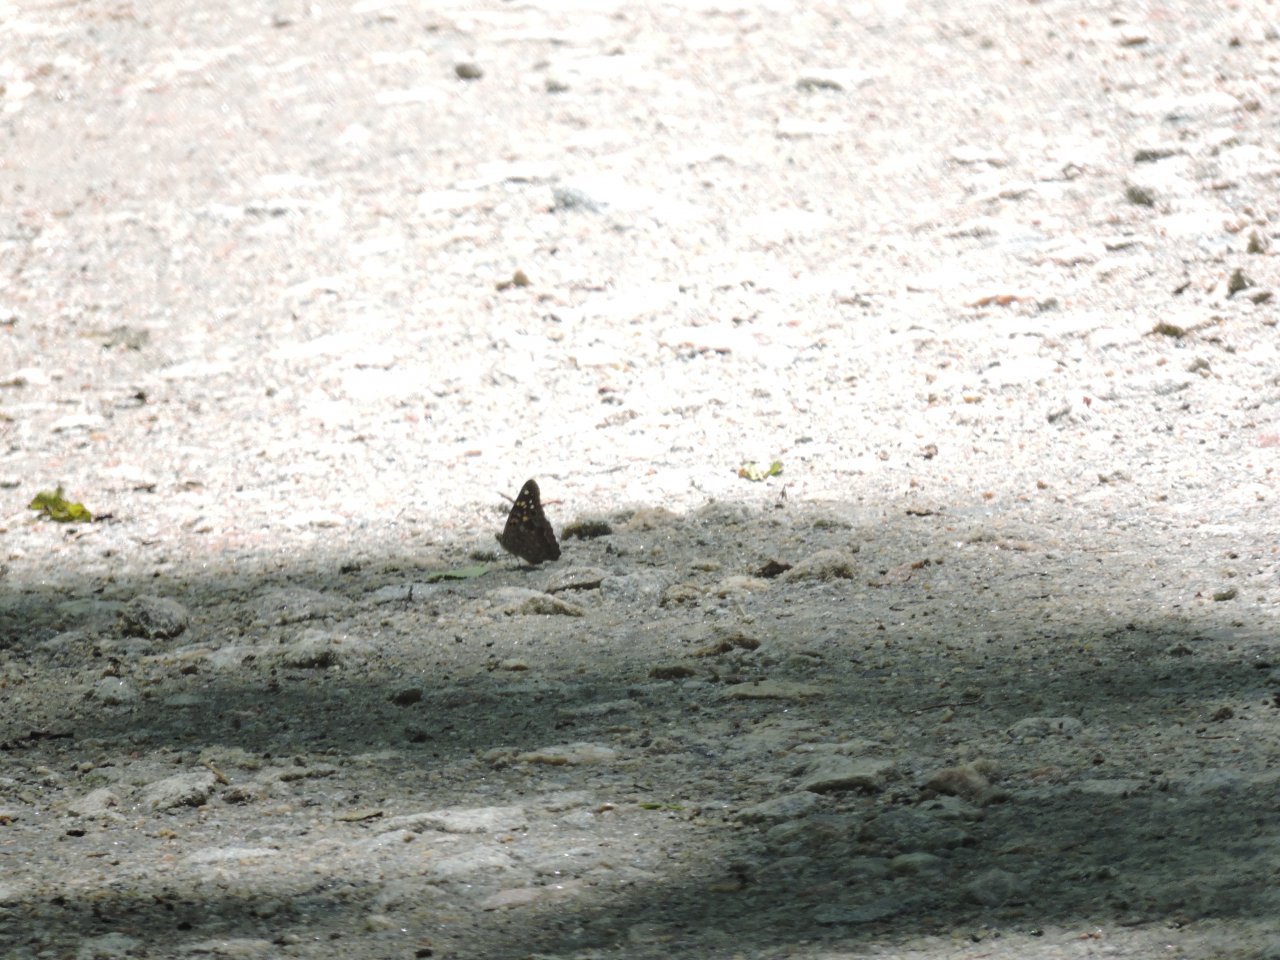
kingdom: Animalia
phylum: Arthropoda
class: Insecta
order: Lepidoptera
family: Nymphalidae
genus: Asterocampa
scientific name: Asterocampa celtis
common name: Hackberry Emperor
